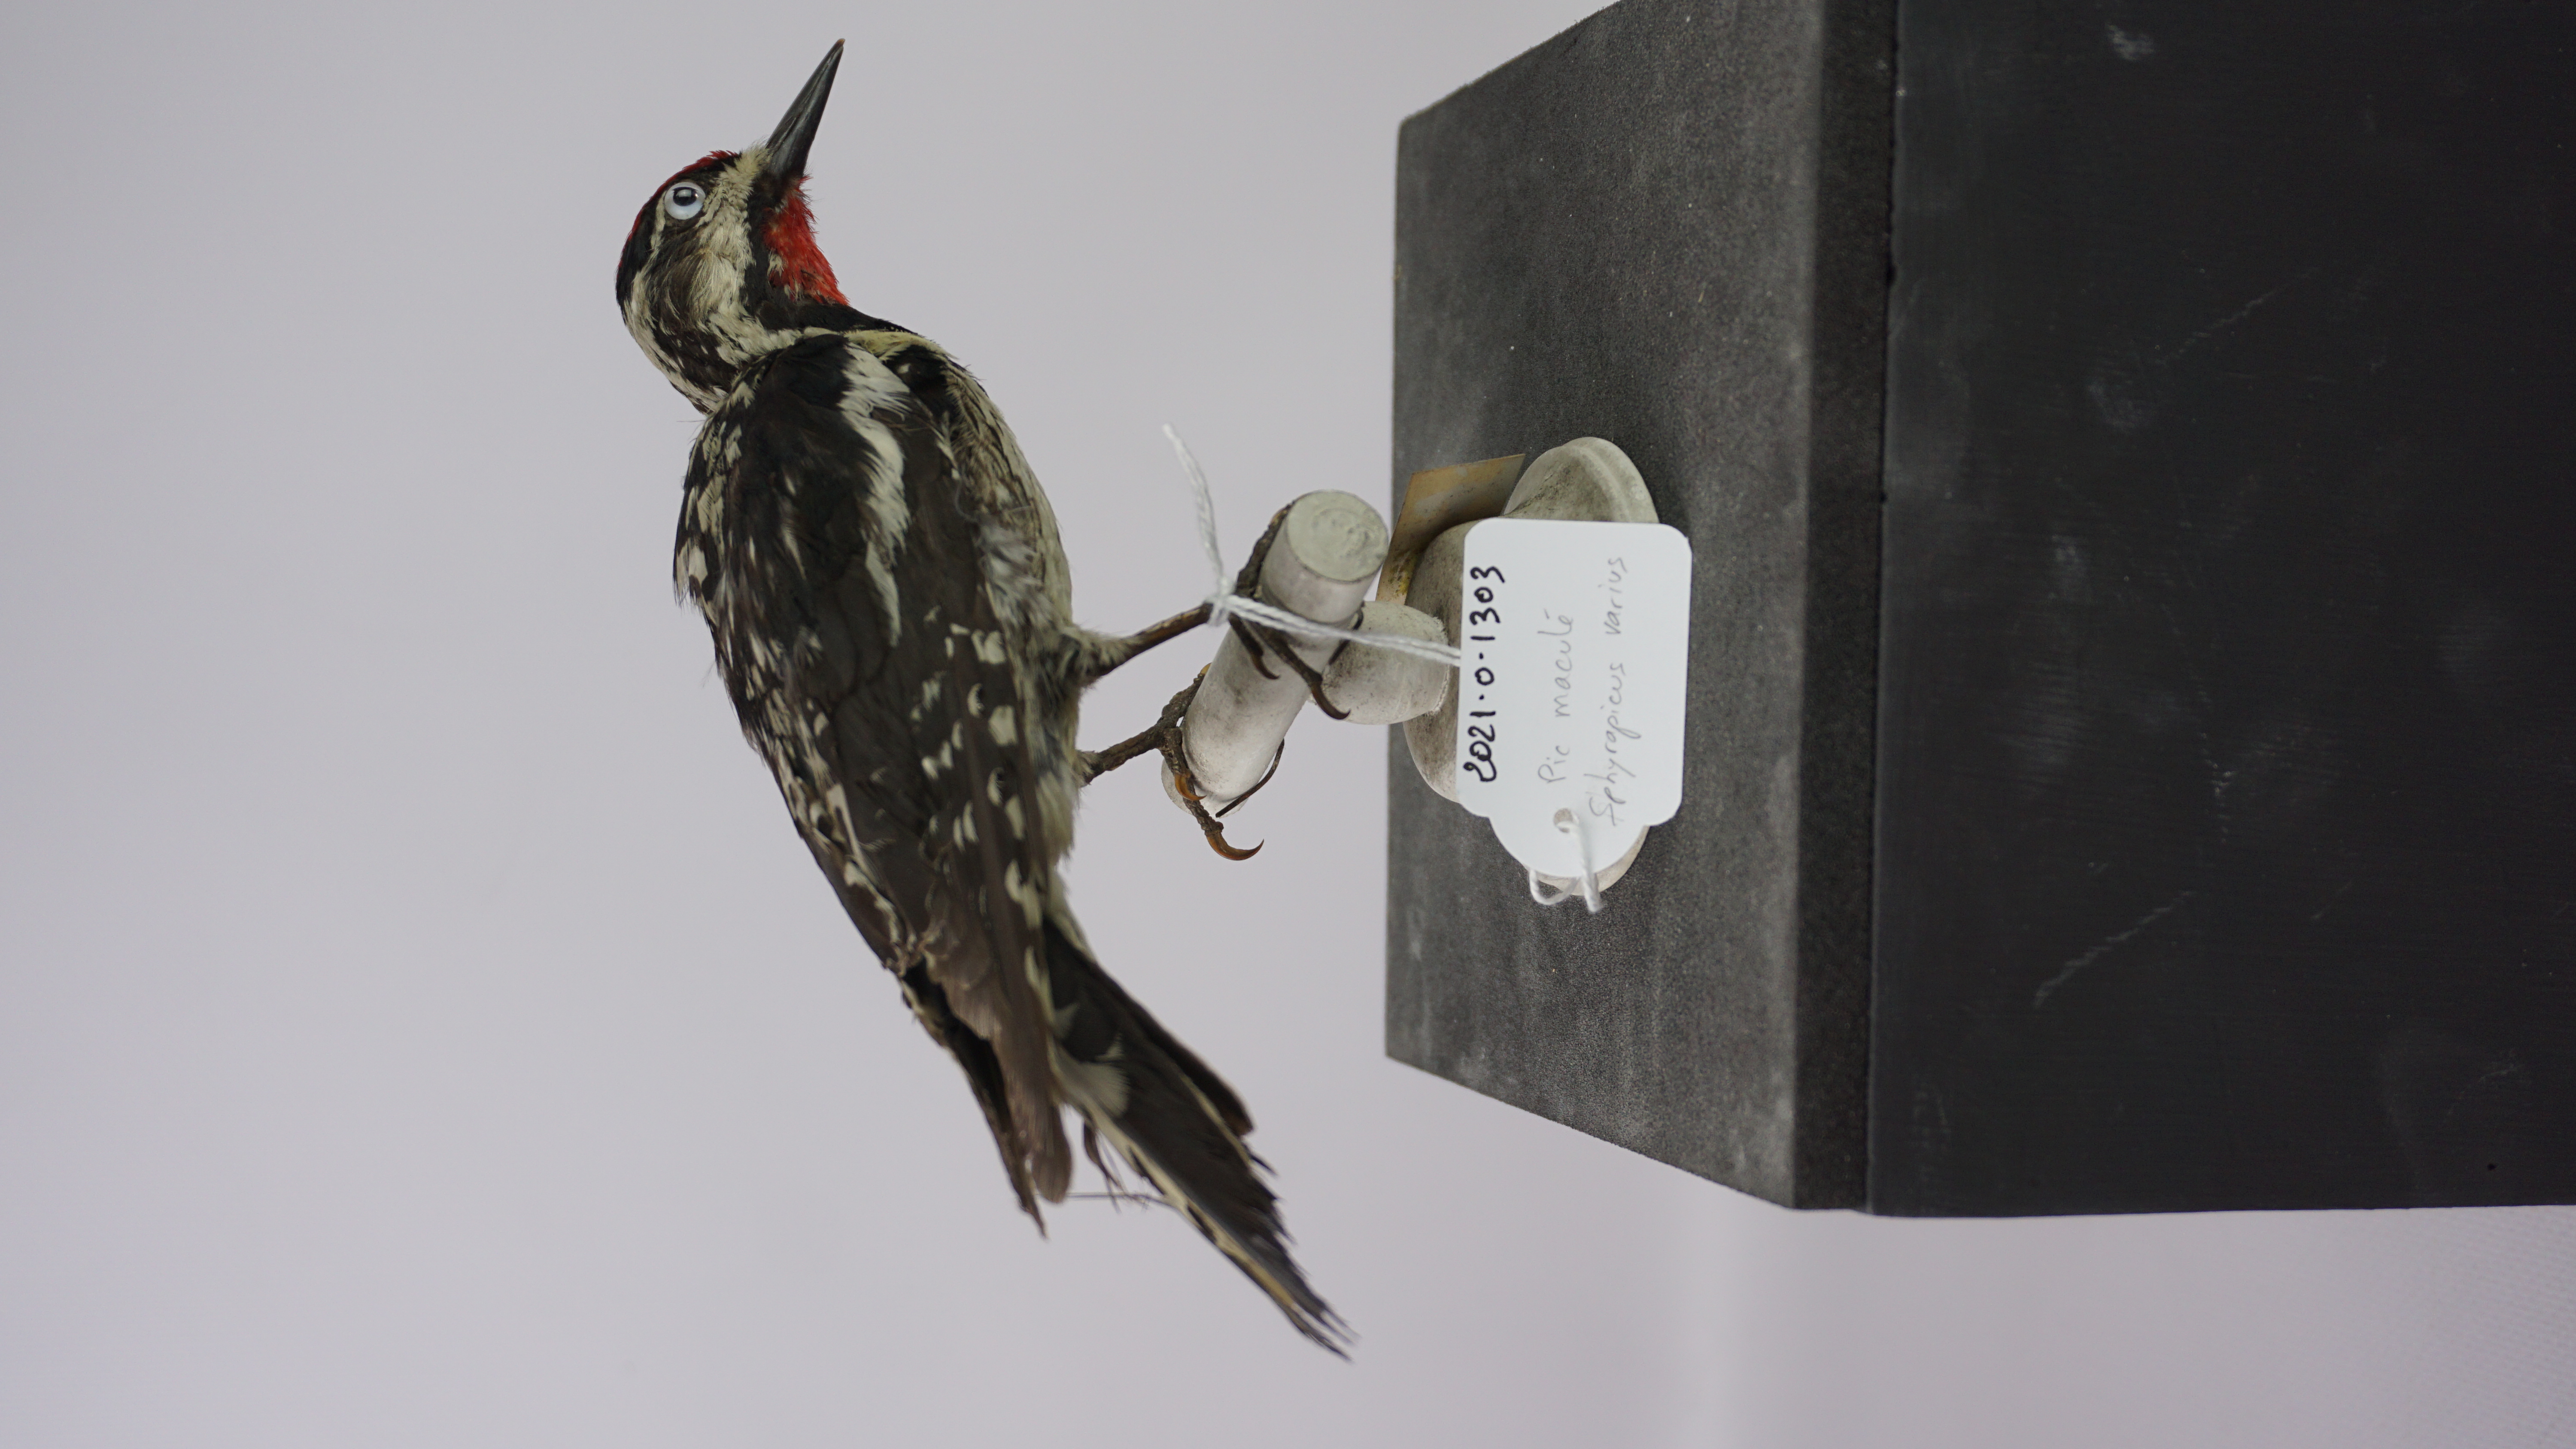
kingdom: Animalia
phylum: Chordata
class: Aves
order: Piciformes
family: Picidae
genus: Sphyrapicus
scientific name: Sphyrapicus varius
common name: Yellow-bellied sapsucker
